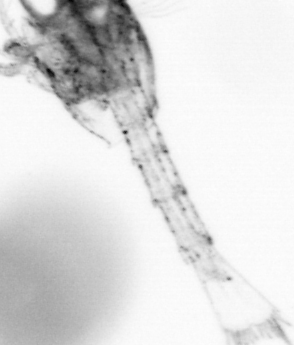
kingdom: Animalia
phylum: Arthropoda
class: Copepoda
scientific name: Copepoda
